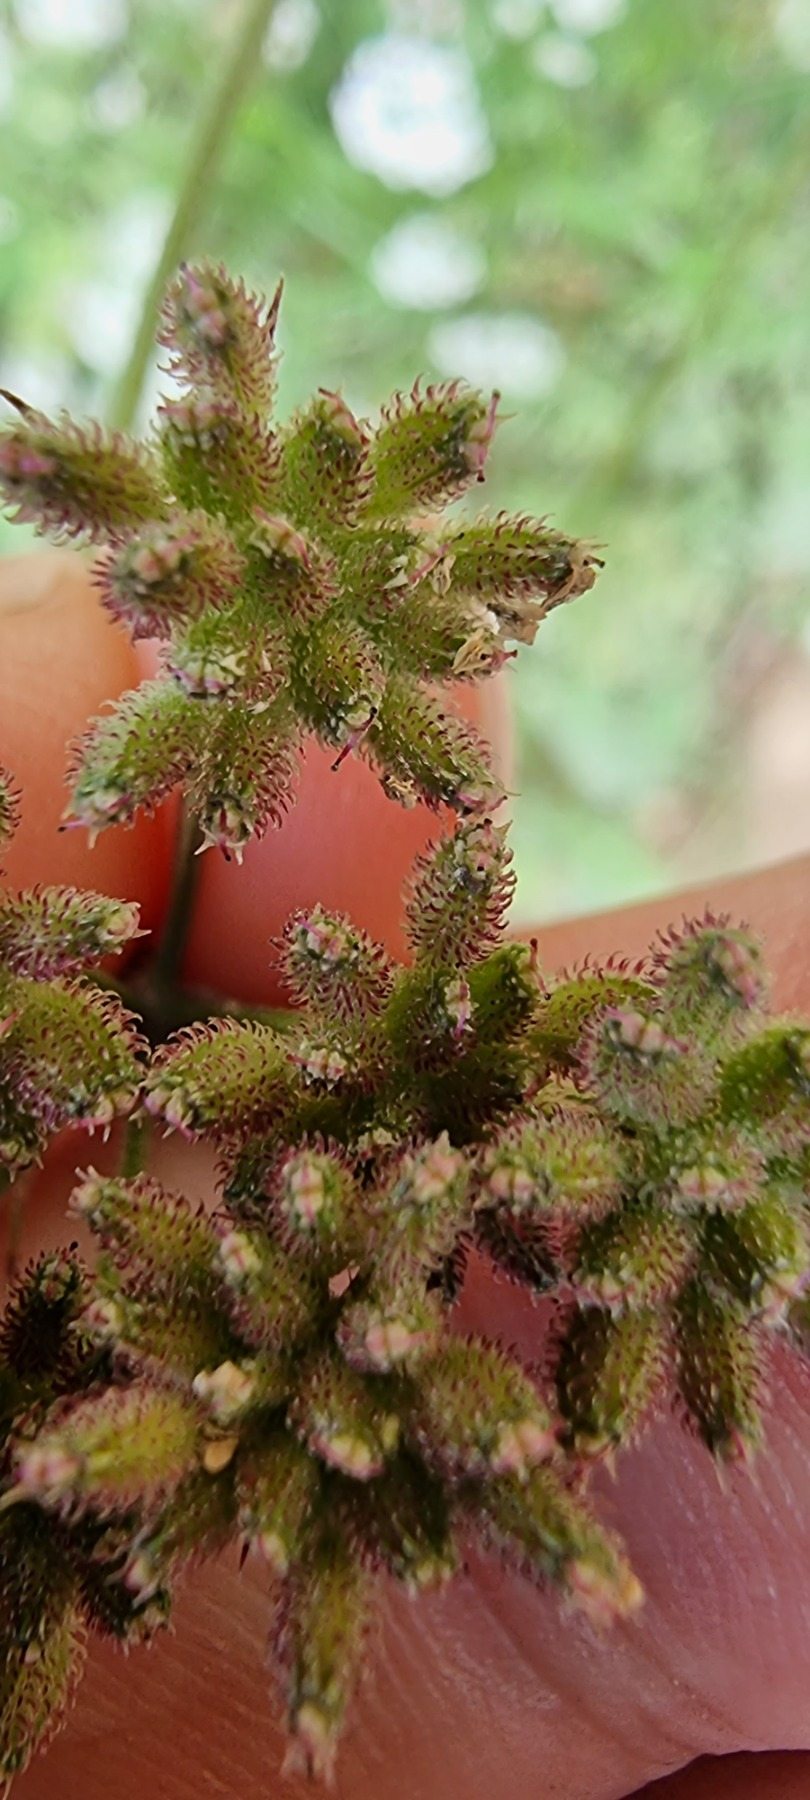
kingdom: Plantae
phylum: Tracheophyta
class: Magnoliopsida
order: Apiales
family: Apiaceae
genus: Torilis
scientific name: Torilis japonica
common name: Hvas randfrø
